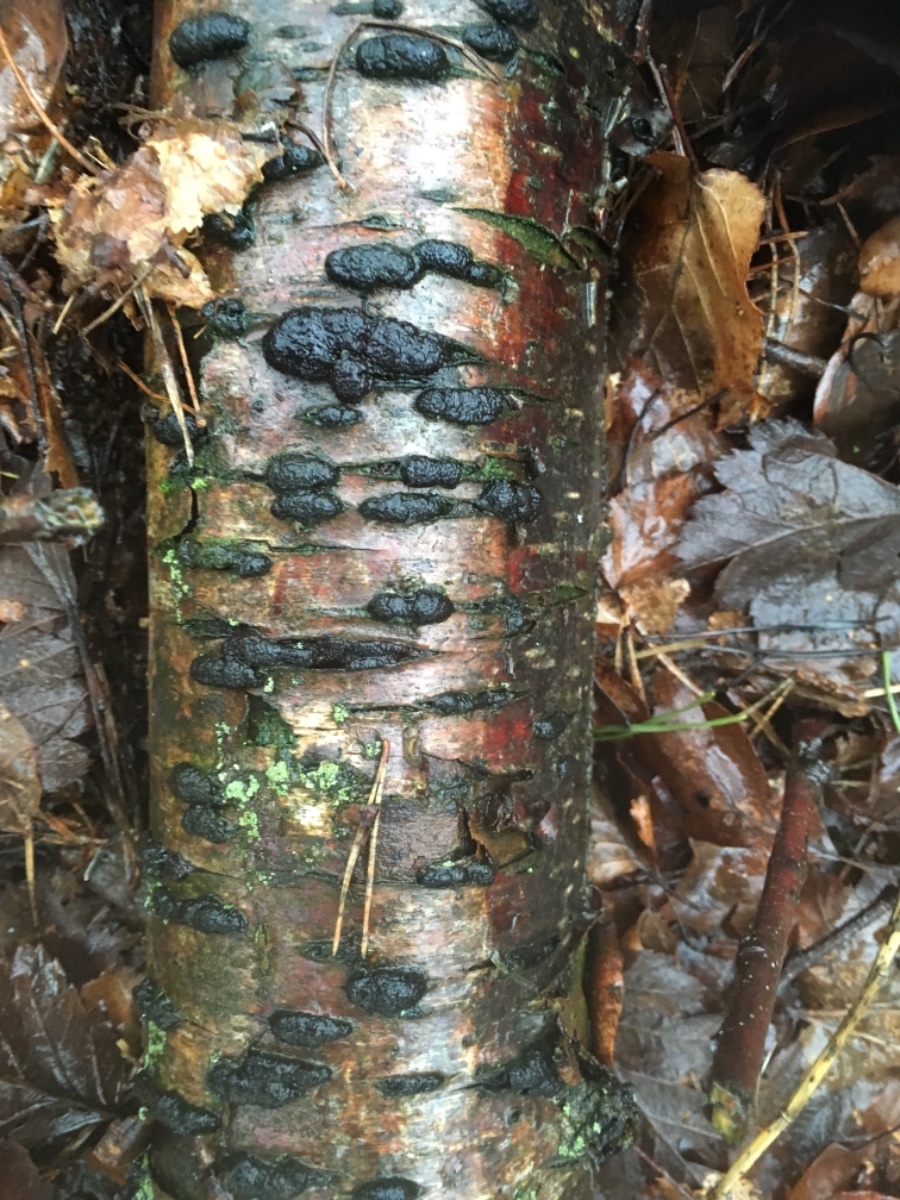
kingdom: Fungi
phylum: Ascomycota
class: Sordariomycetes
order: Xylariales
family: Hypoxylaceae
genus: Jackrogersella
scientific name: Jackrogersella multiformis
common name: foranderlig kulbær
